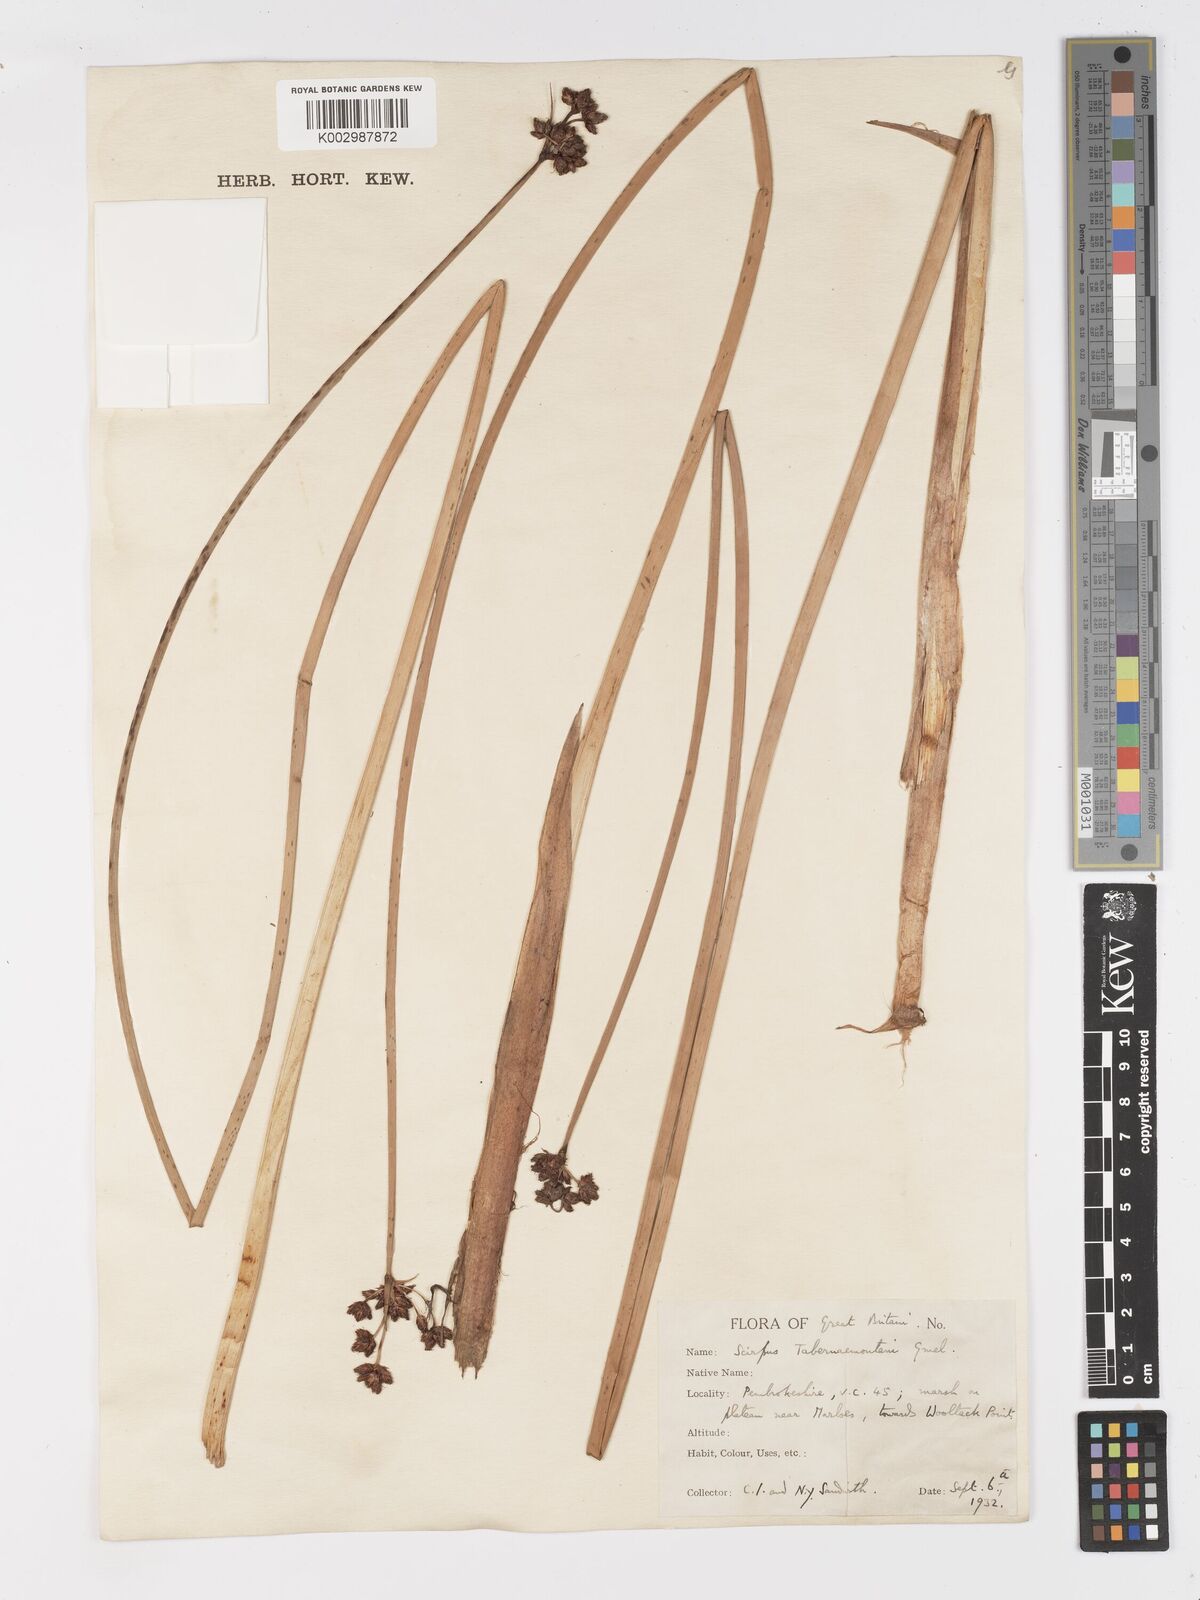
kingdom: Plantae
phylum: Tracheophyta
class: Liliopsida
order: Poales
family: Cyperaceae
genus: Schoenoplectus
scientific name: Schoenoplectus tabernaemontani
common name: Grey club-rush
